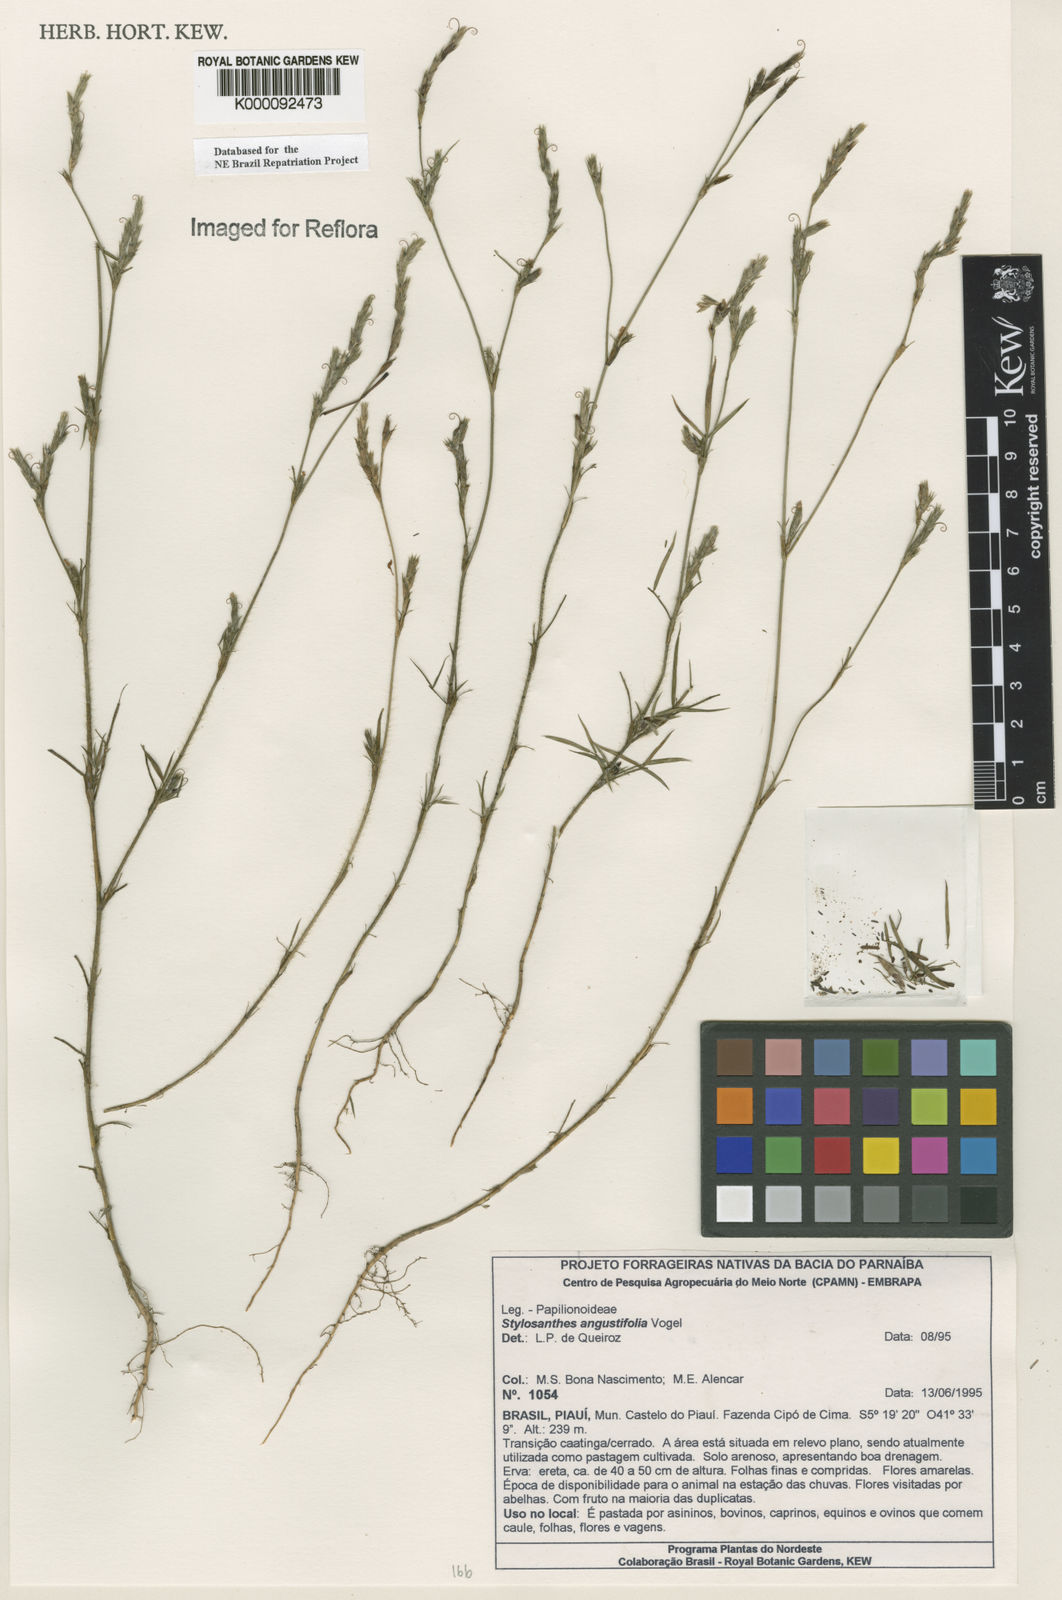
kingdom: Plantae
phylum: Tracheophyta
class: Magnoliopsida
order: Fabales
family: Fabaceae
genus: Stylosanthes
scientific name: Stylosanthes angustifolia
